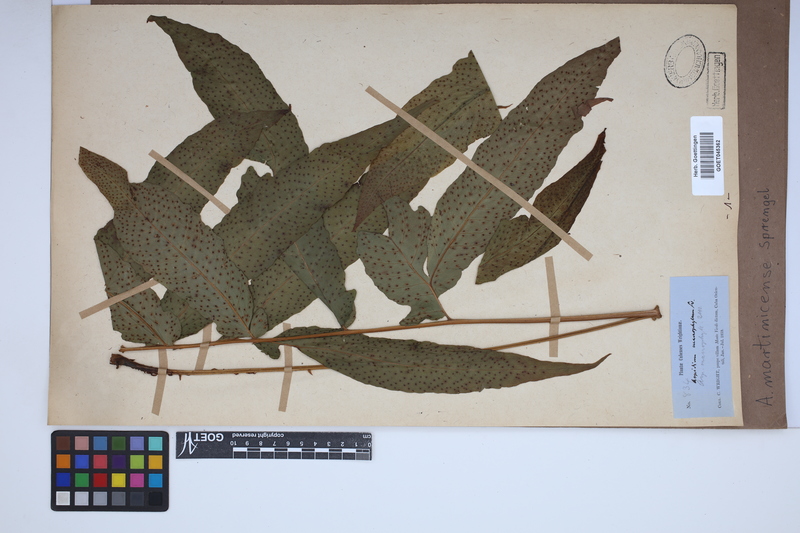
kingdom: Plantae
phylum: Tracheophyta
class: Polypodiopsida
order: Polypodiales
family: Tectariaceae
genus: Tectaria
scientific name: Tectaria incisa
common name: Incised halberd fern
